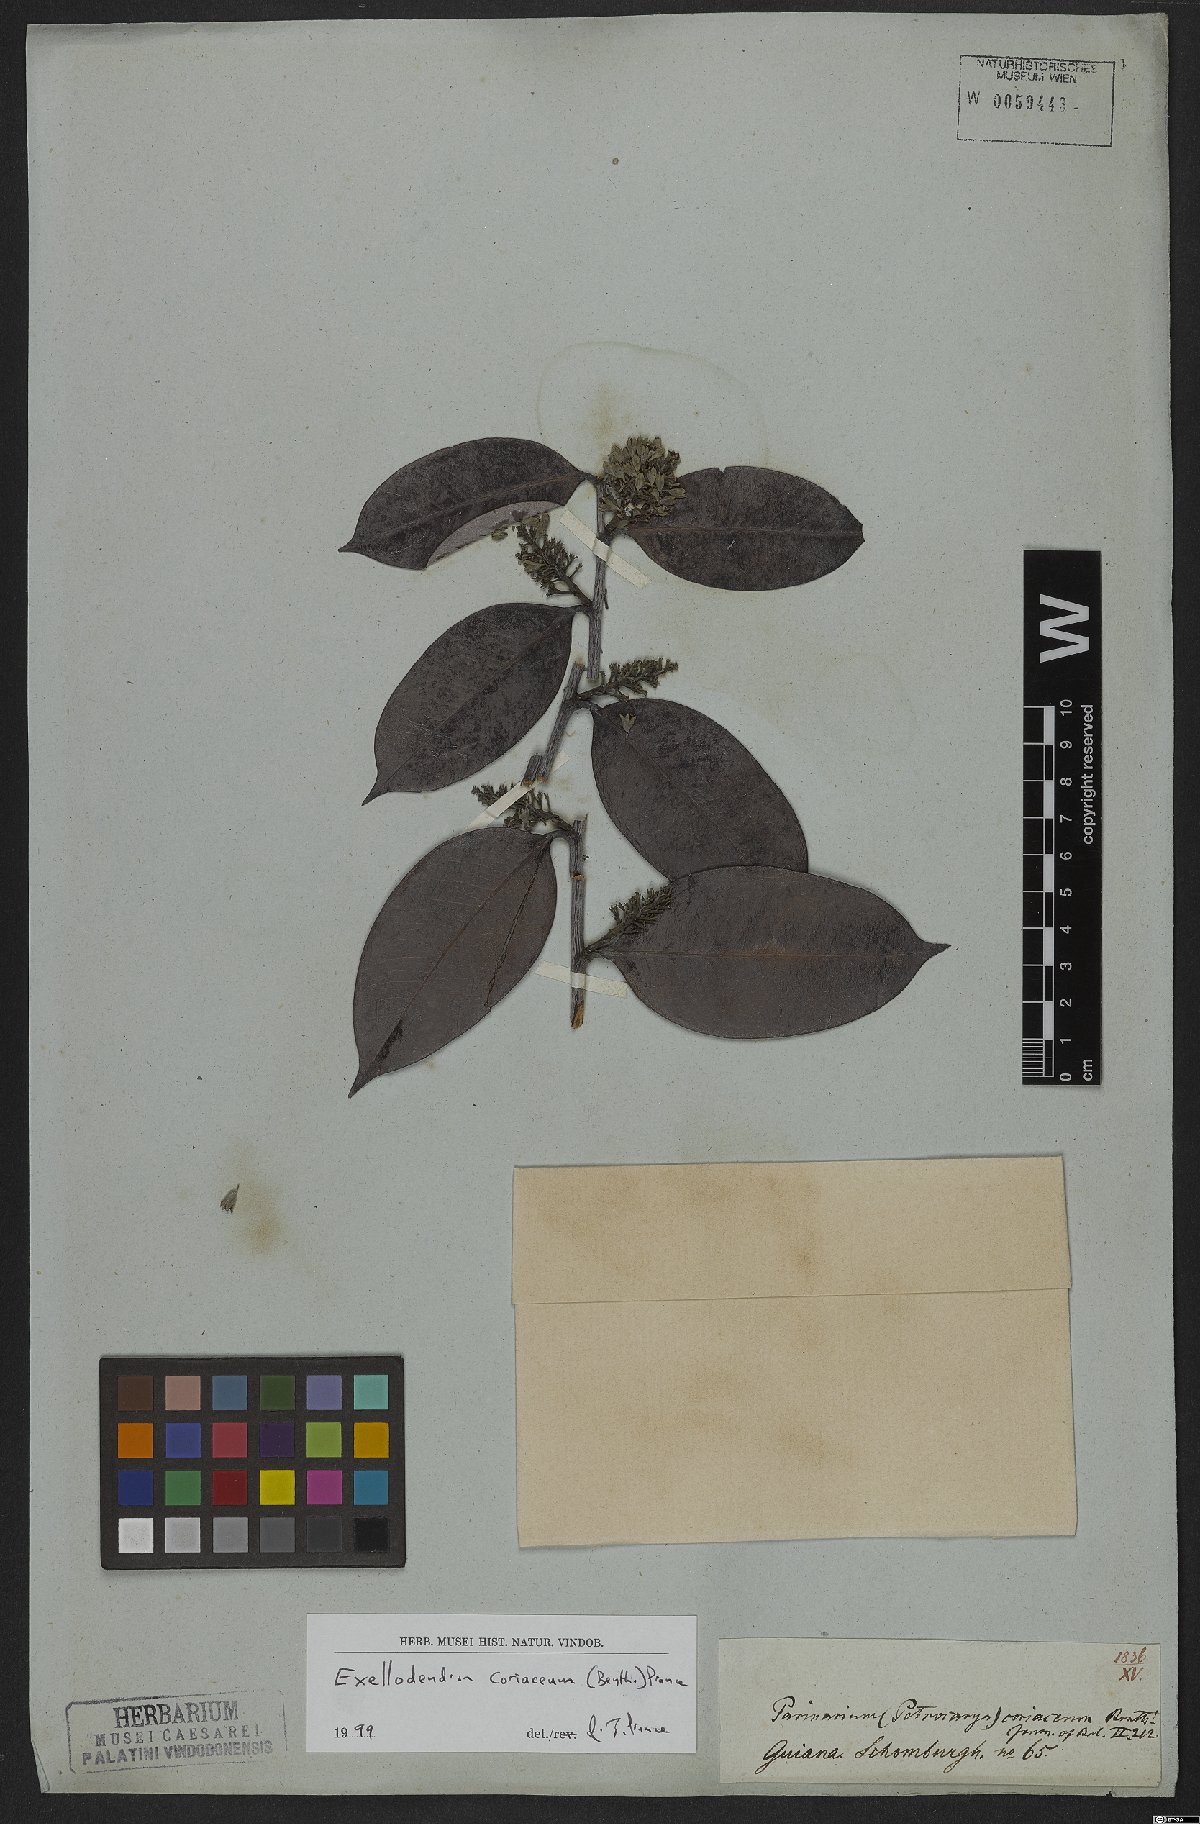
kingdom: Plantae
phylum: Tracheophyta
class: Magnoliopsida
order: Malpighiales
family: Chrysobalanaceae
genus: Exellodendron
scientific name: Exellodendron coriaceum
